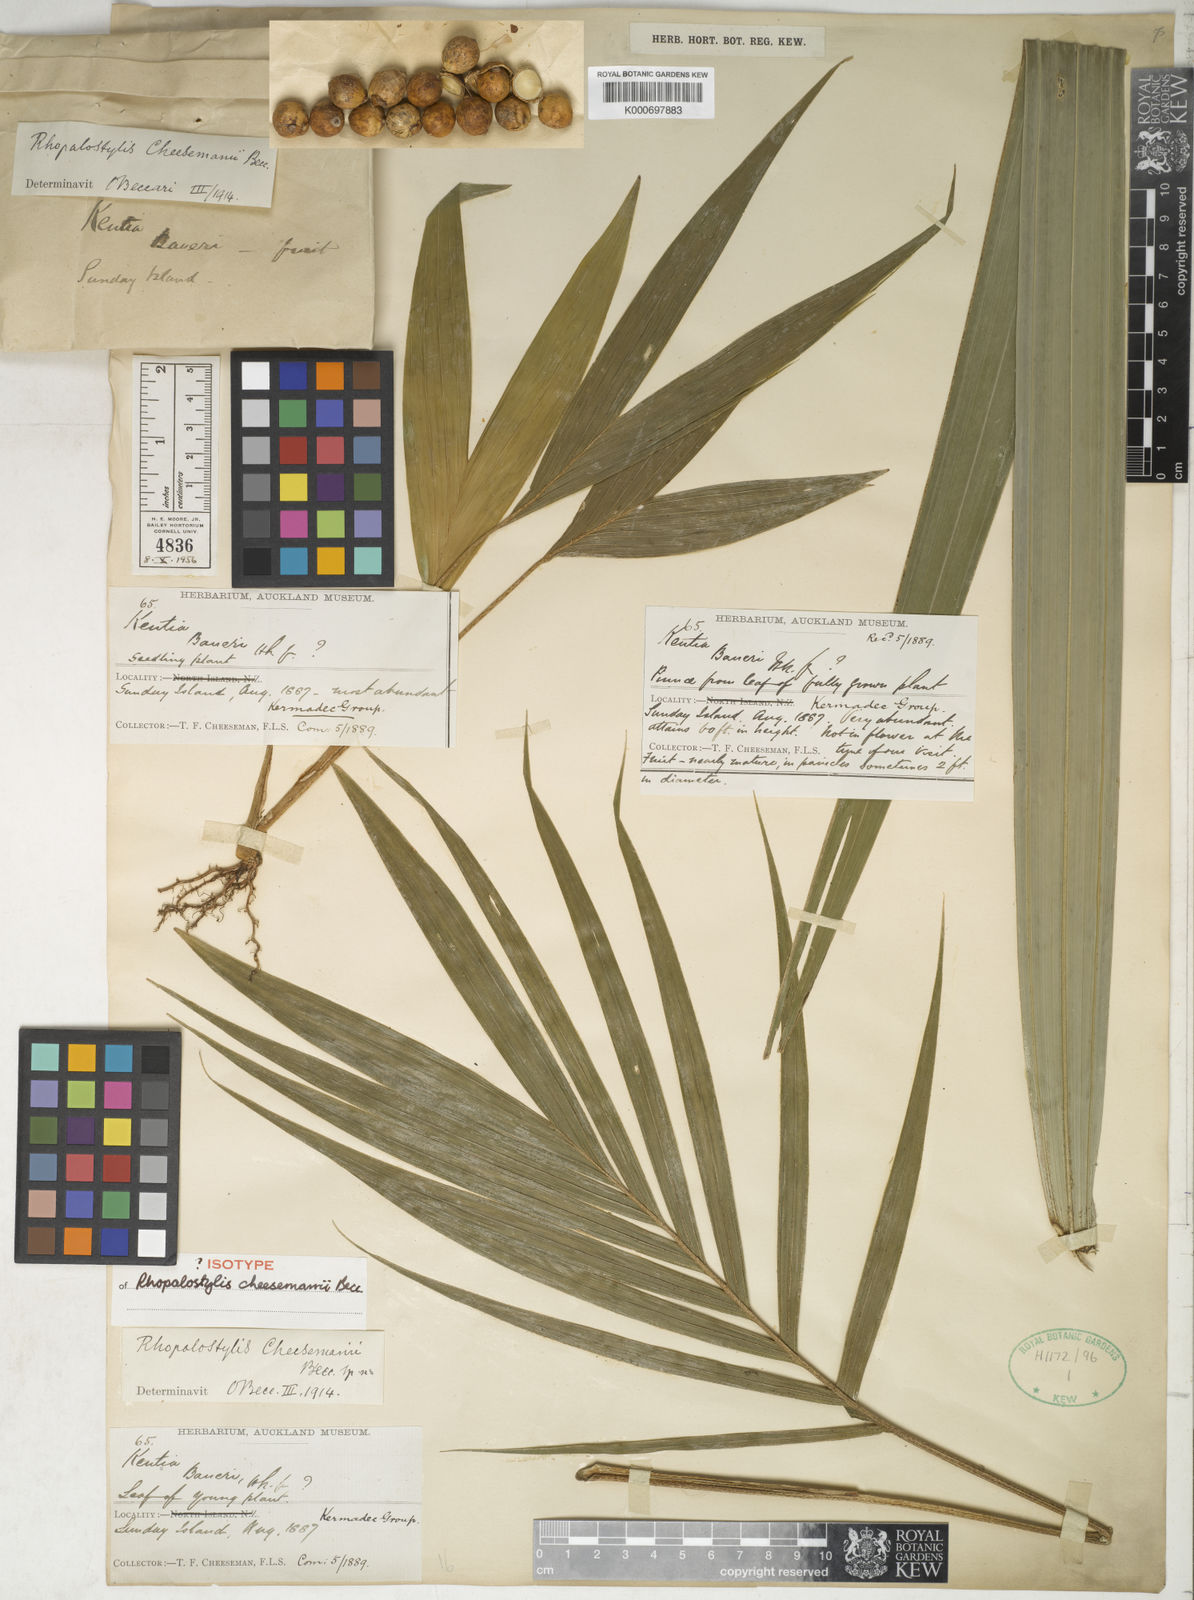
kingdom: Plantae
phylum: Tracheophyta
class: Liliopsida
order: Arecales
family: Arecaceae
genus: Rhopalostylis
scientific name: Rhopalostylis baueri
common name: Norfolk island palm
